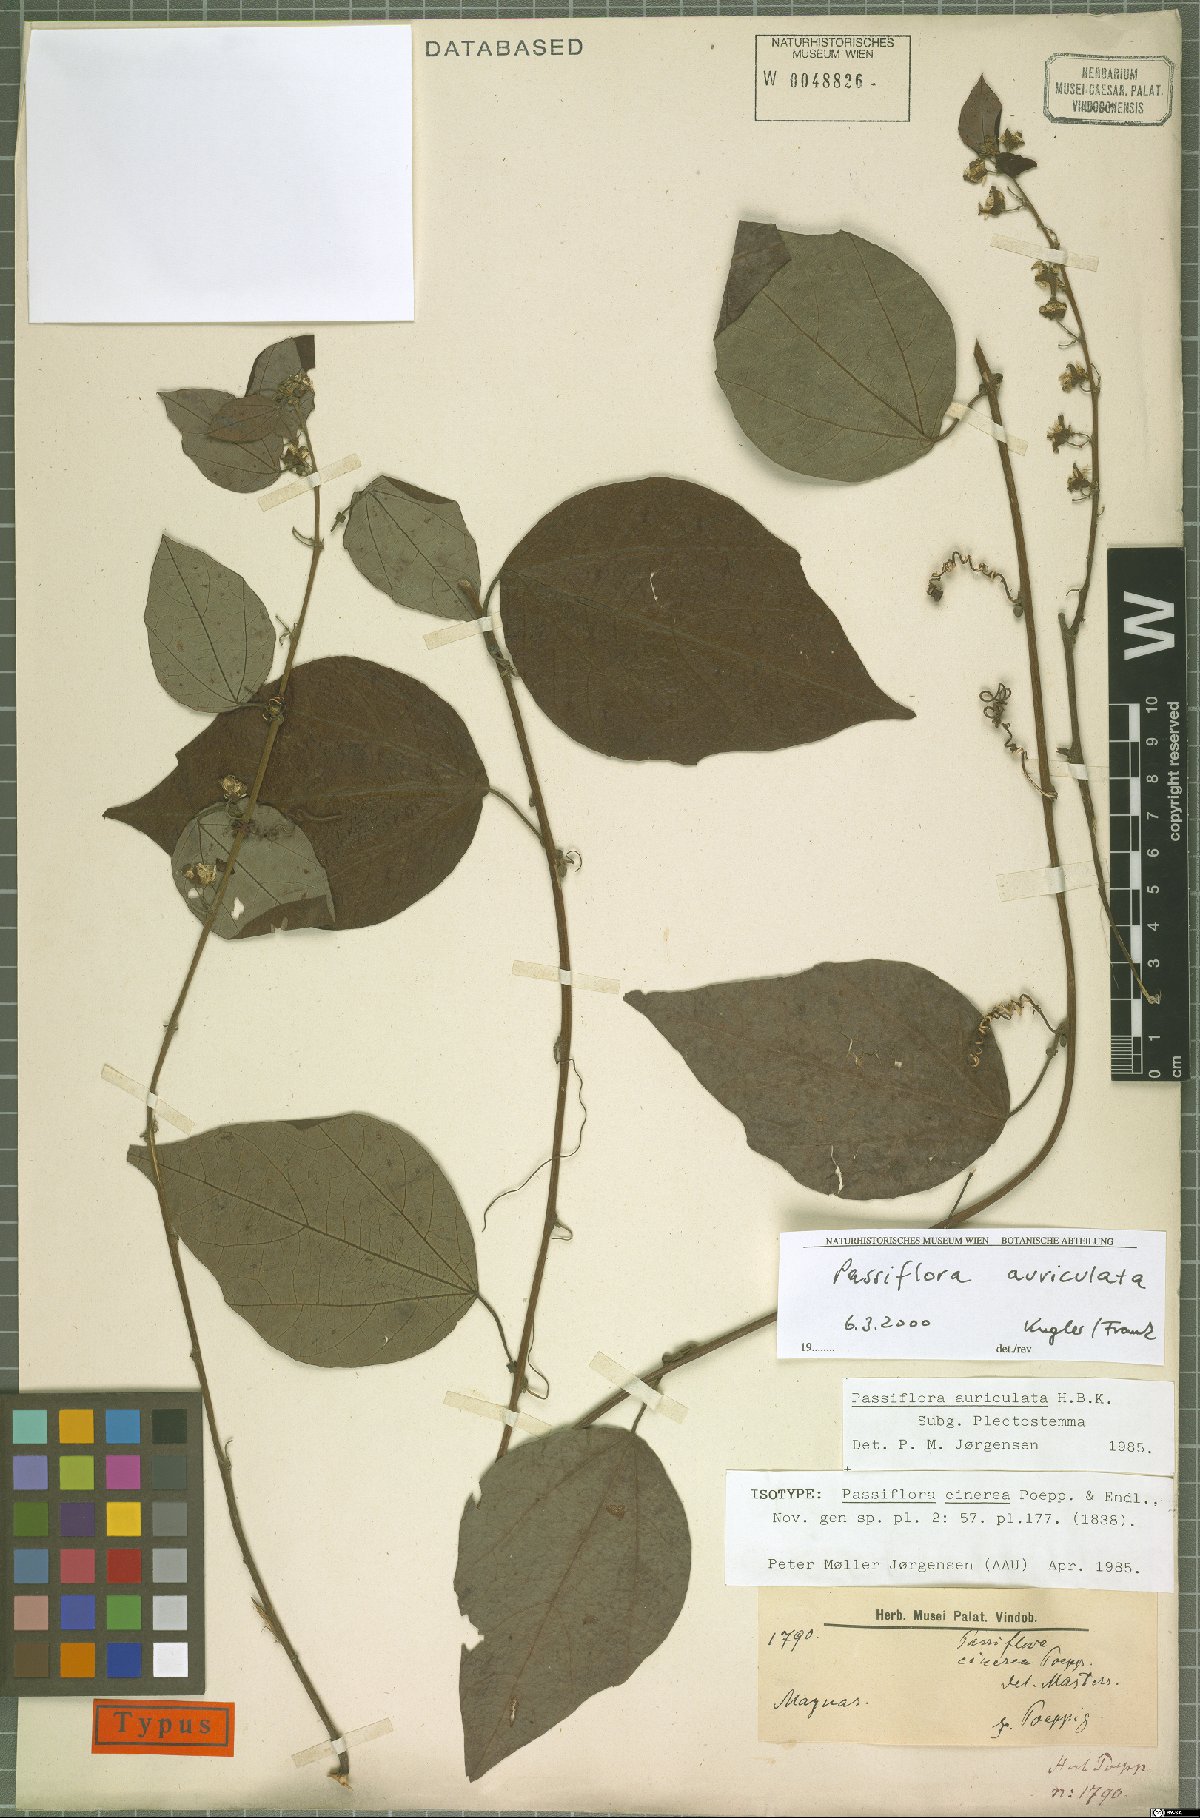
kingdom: Plantae
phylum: Tracheophyta
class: Magnoliopsida
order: Malpighiales
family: Passifloraceae
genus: Passiflora
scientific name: Passiflora auriculata
